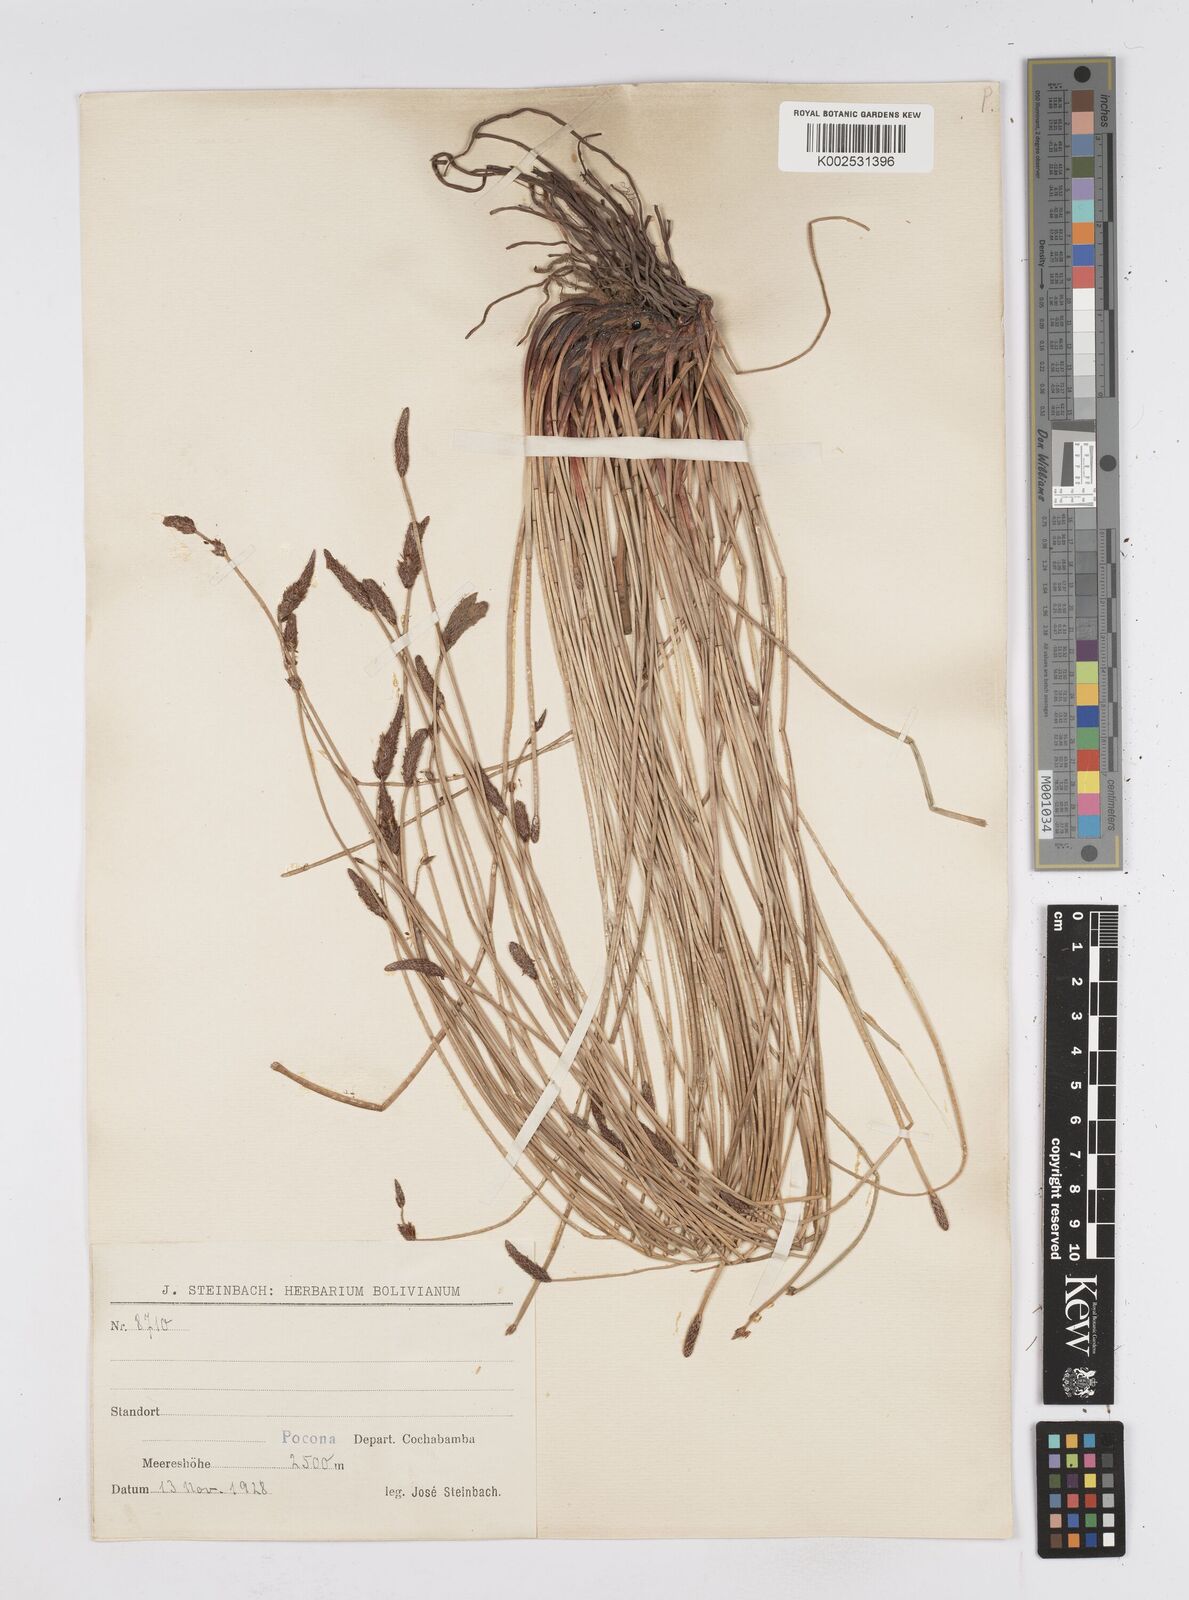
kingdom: Plantae
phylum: Tracheophyta
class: Liliopsida
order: Poales
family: Cyperaceae
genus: Eleocharis
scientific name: Eleocharis
